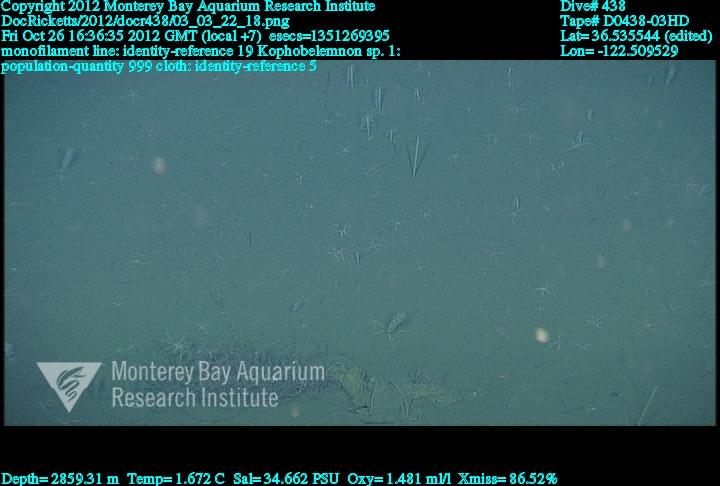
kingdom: Animalia
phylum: Cnidaria
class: Anthozoa
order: Scleralcyonacea
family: Kophobelemnidae
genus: Kophobelemnon
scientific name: Kophobelemnon
